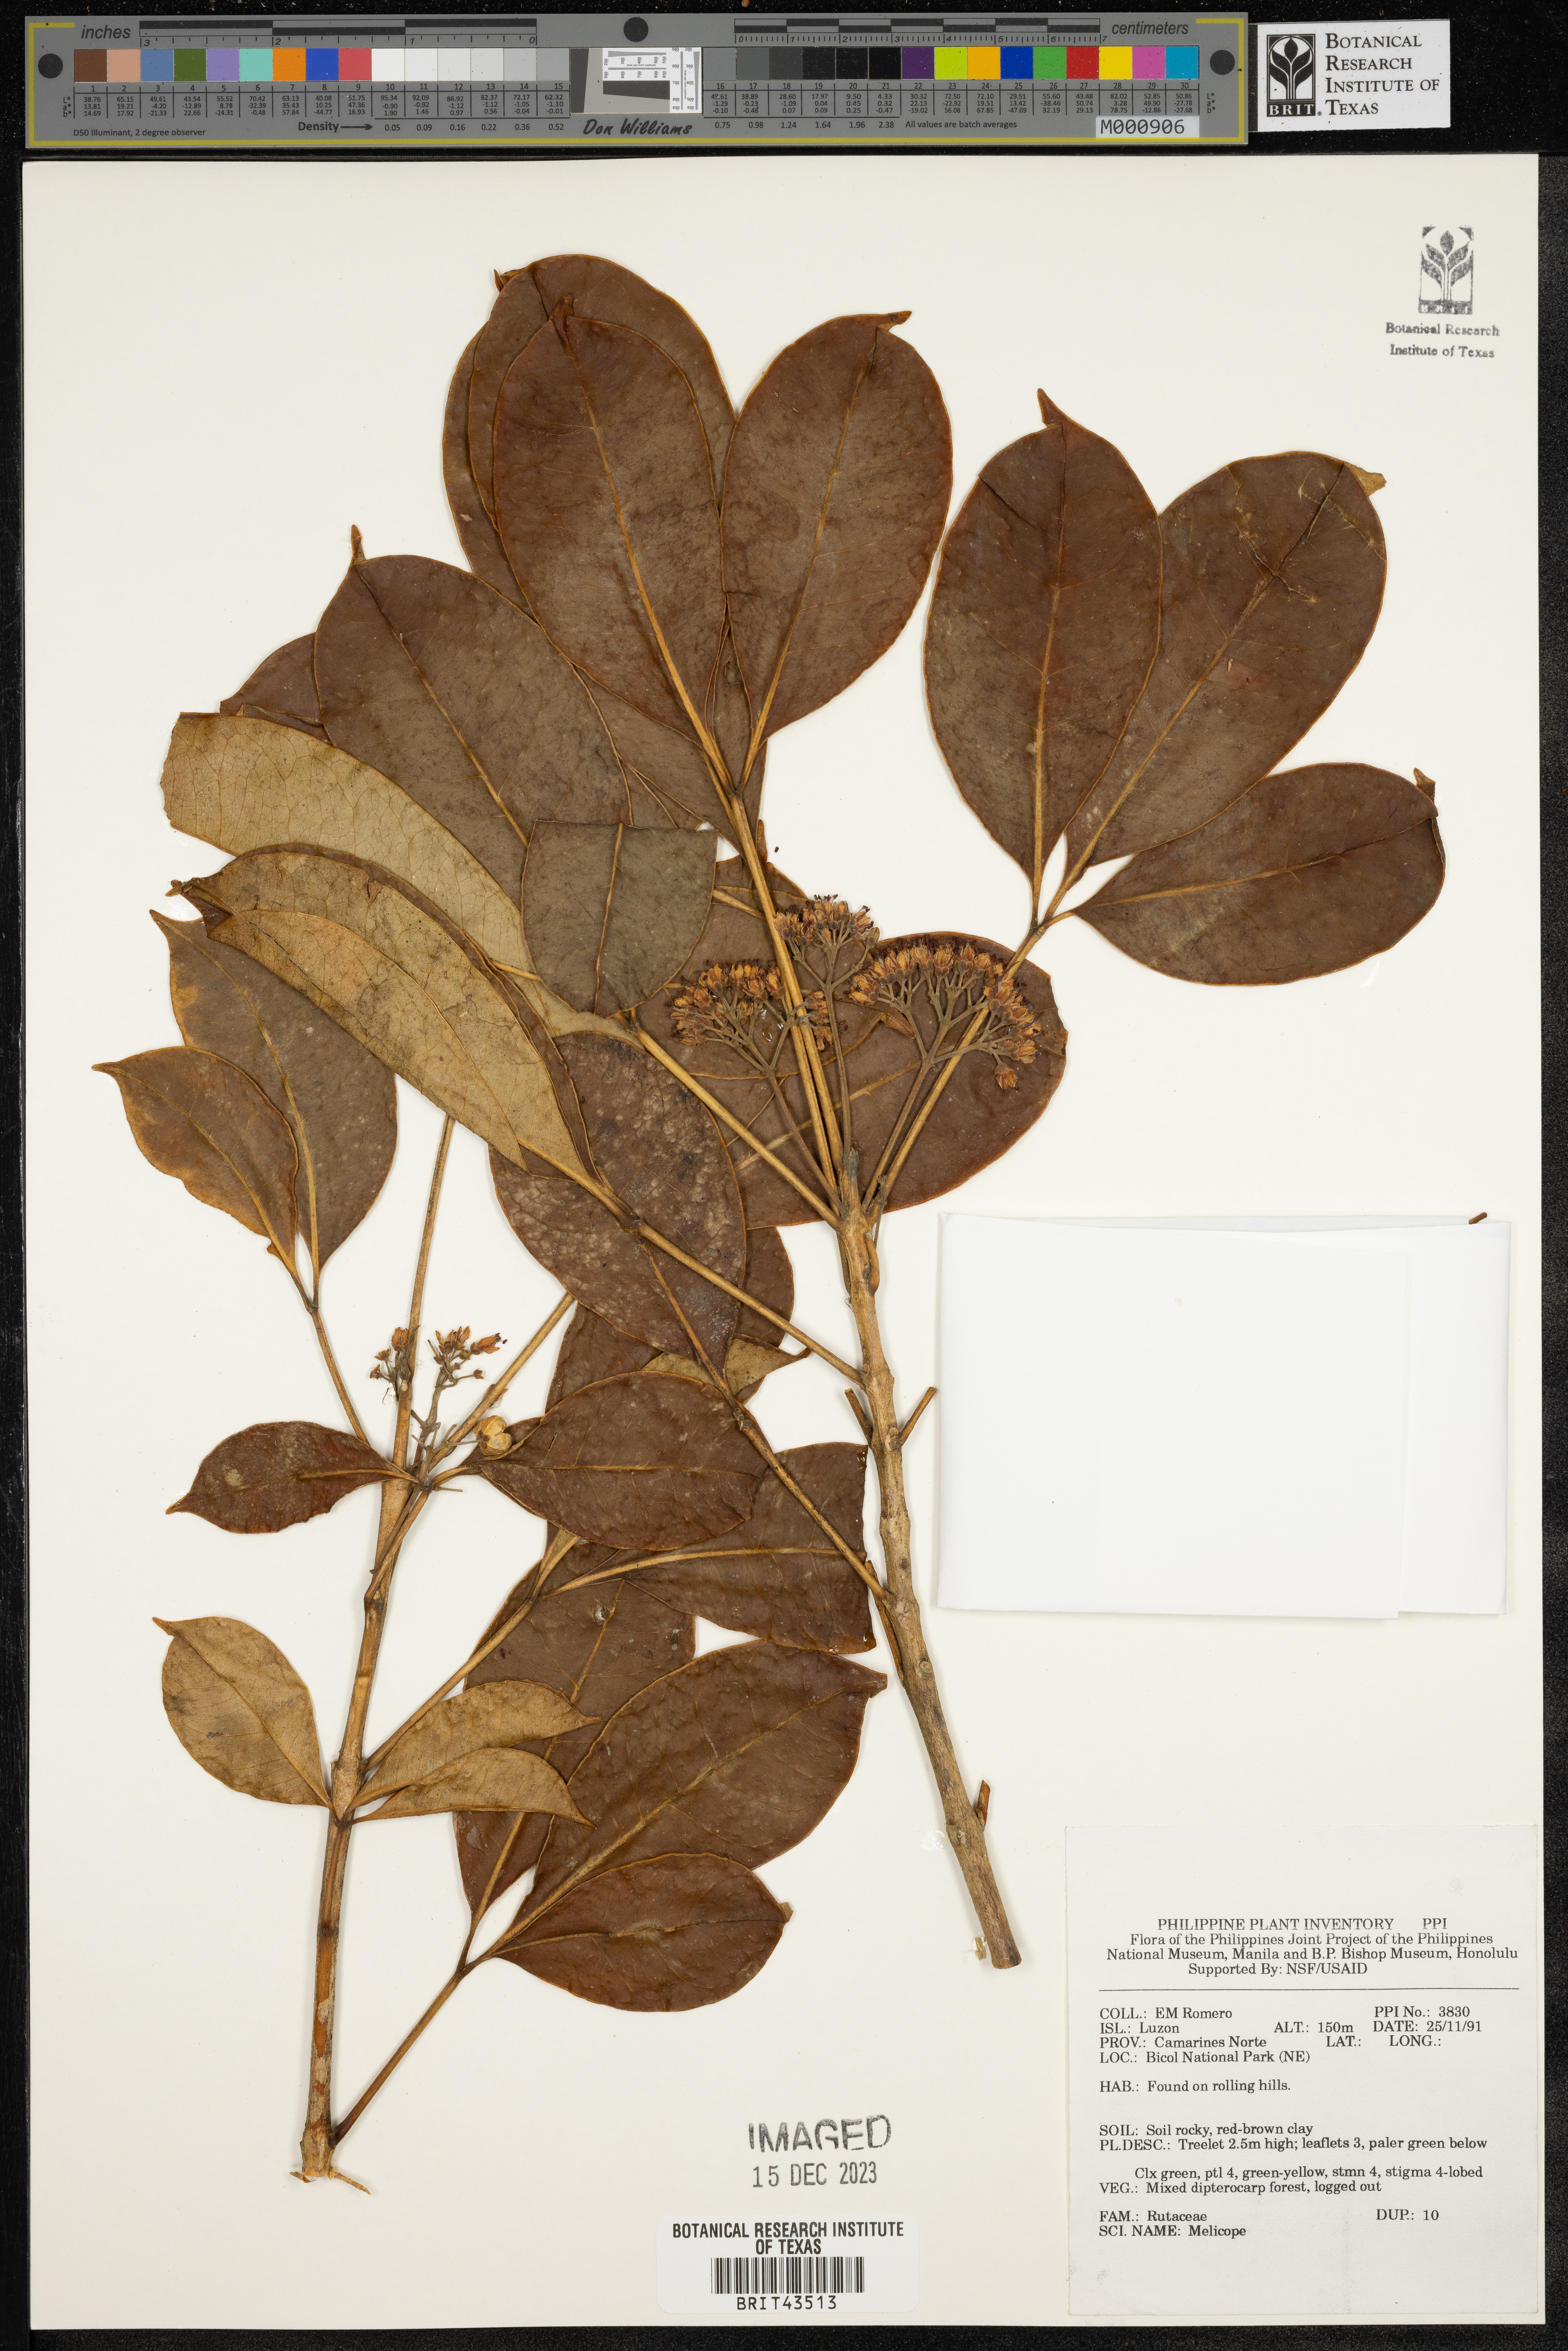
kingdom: Plantae
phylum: Tracheophyta
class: Magnoliopsida
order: Sapindales
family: Rutaceae
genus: Melicope
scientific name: Melicope
